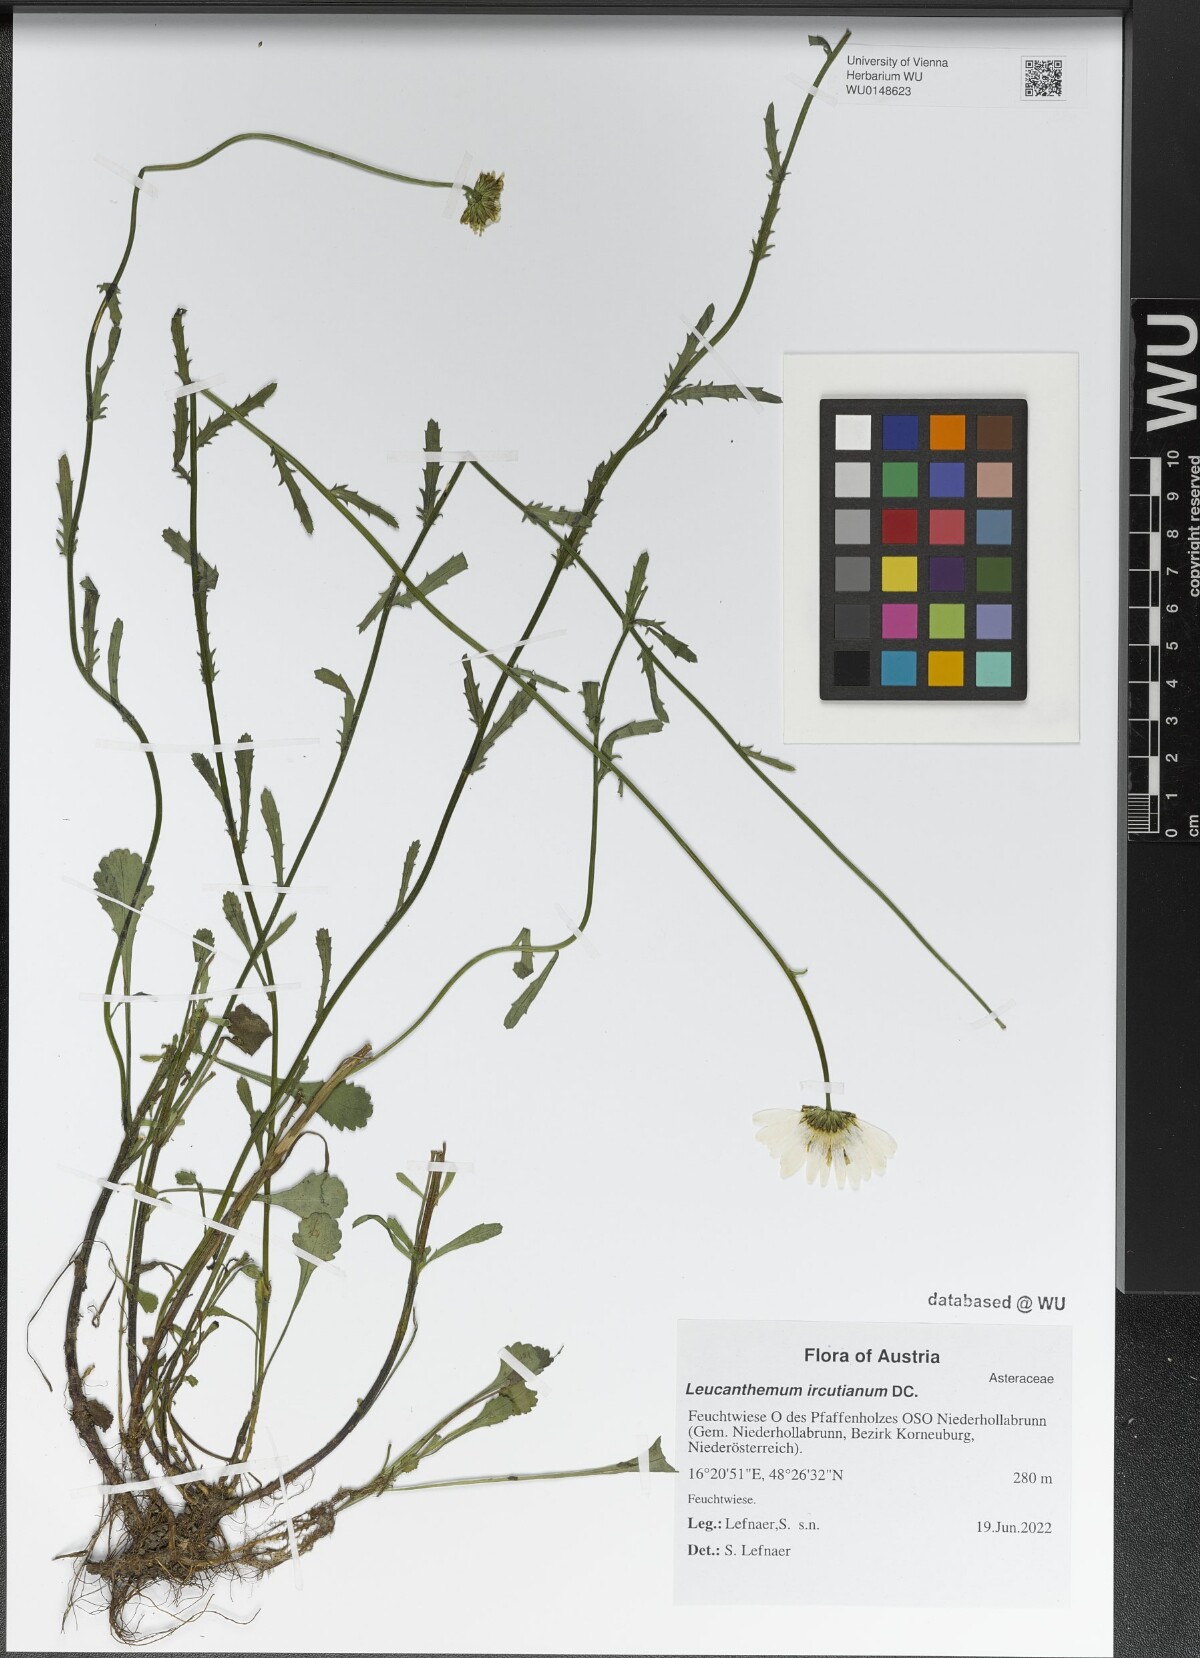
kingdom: Plantae
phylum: Tracheophyta
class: Magnoliopsida
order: Asterales
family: Asteraceae
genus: Leucanthemum
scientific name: Leucanthemum ircutianum
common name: Daisy
